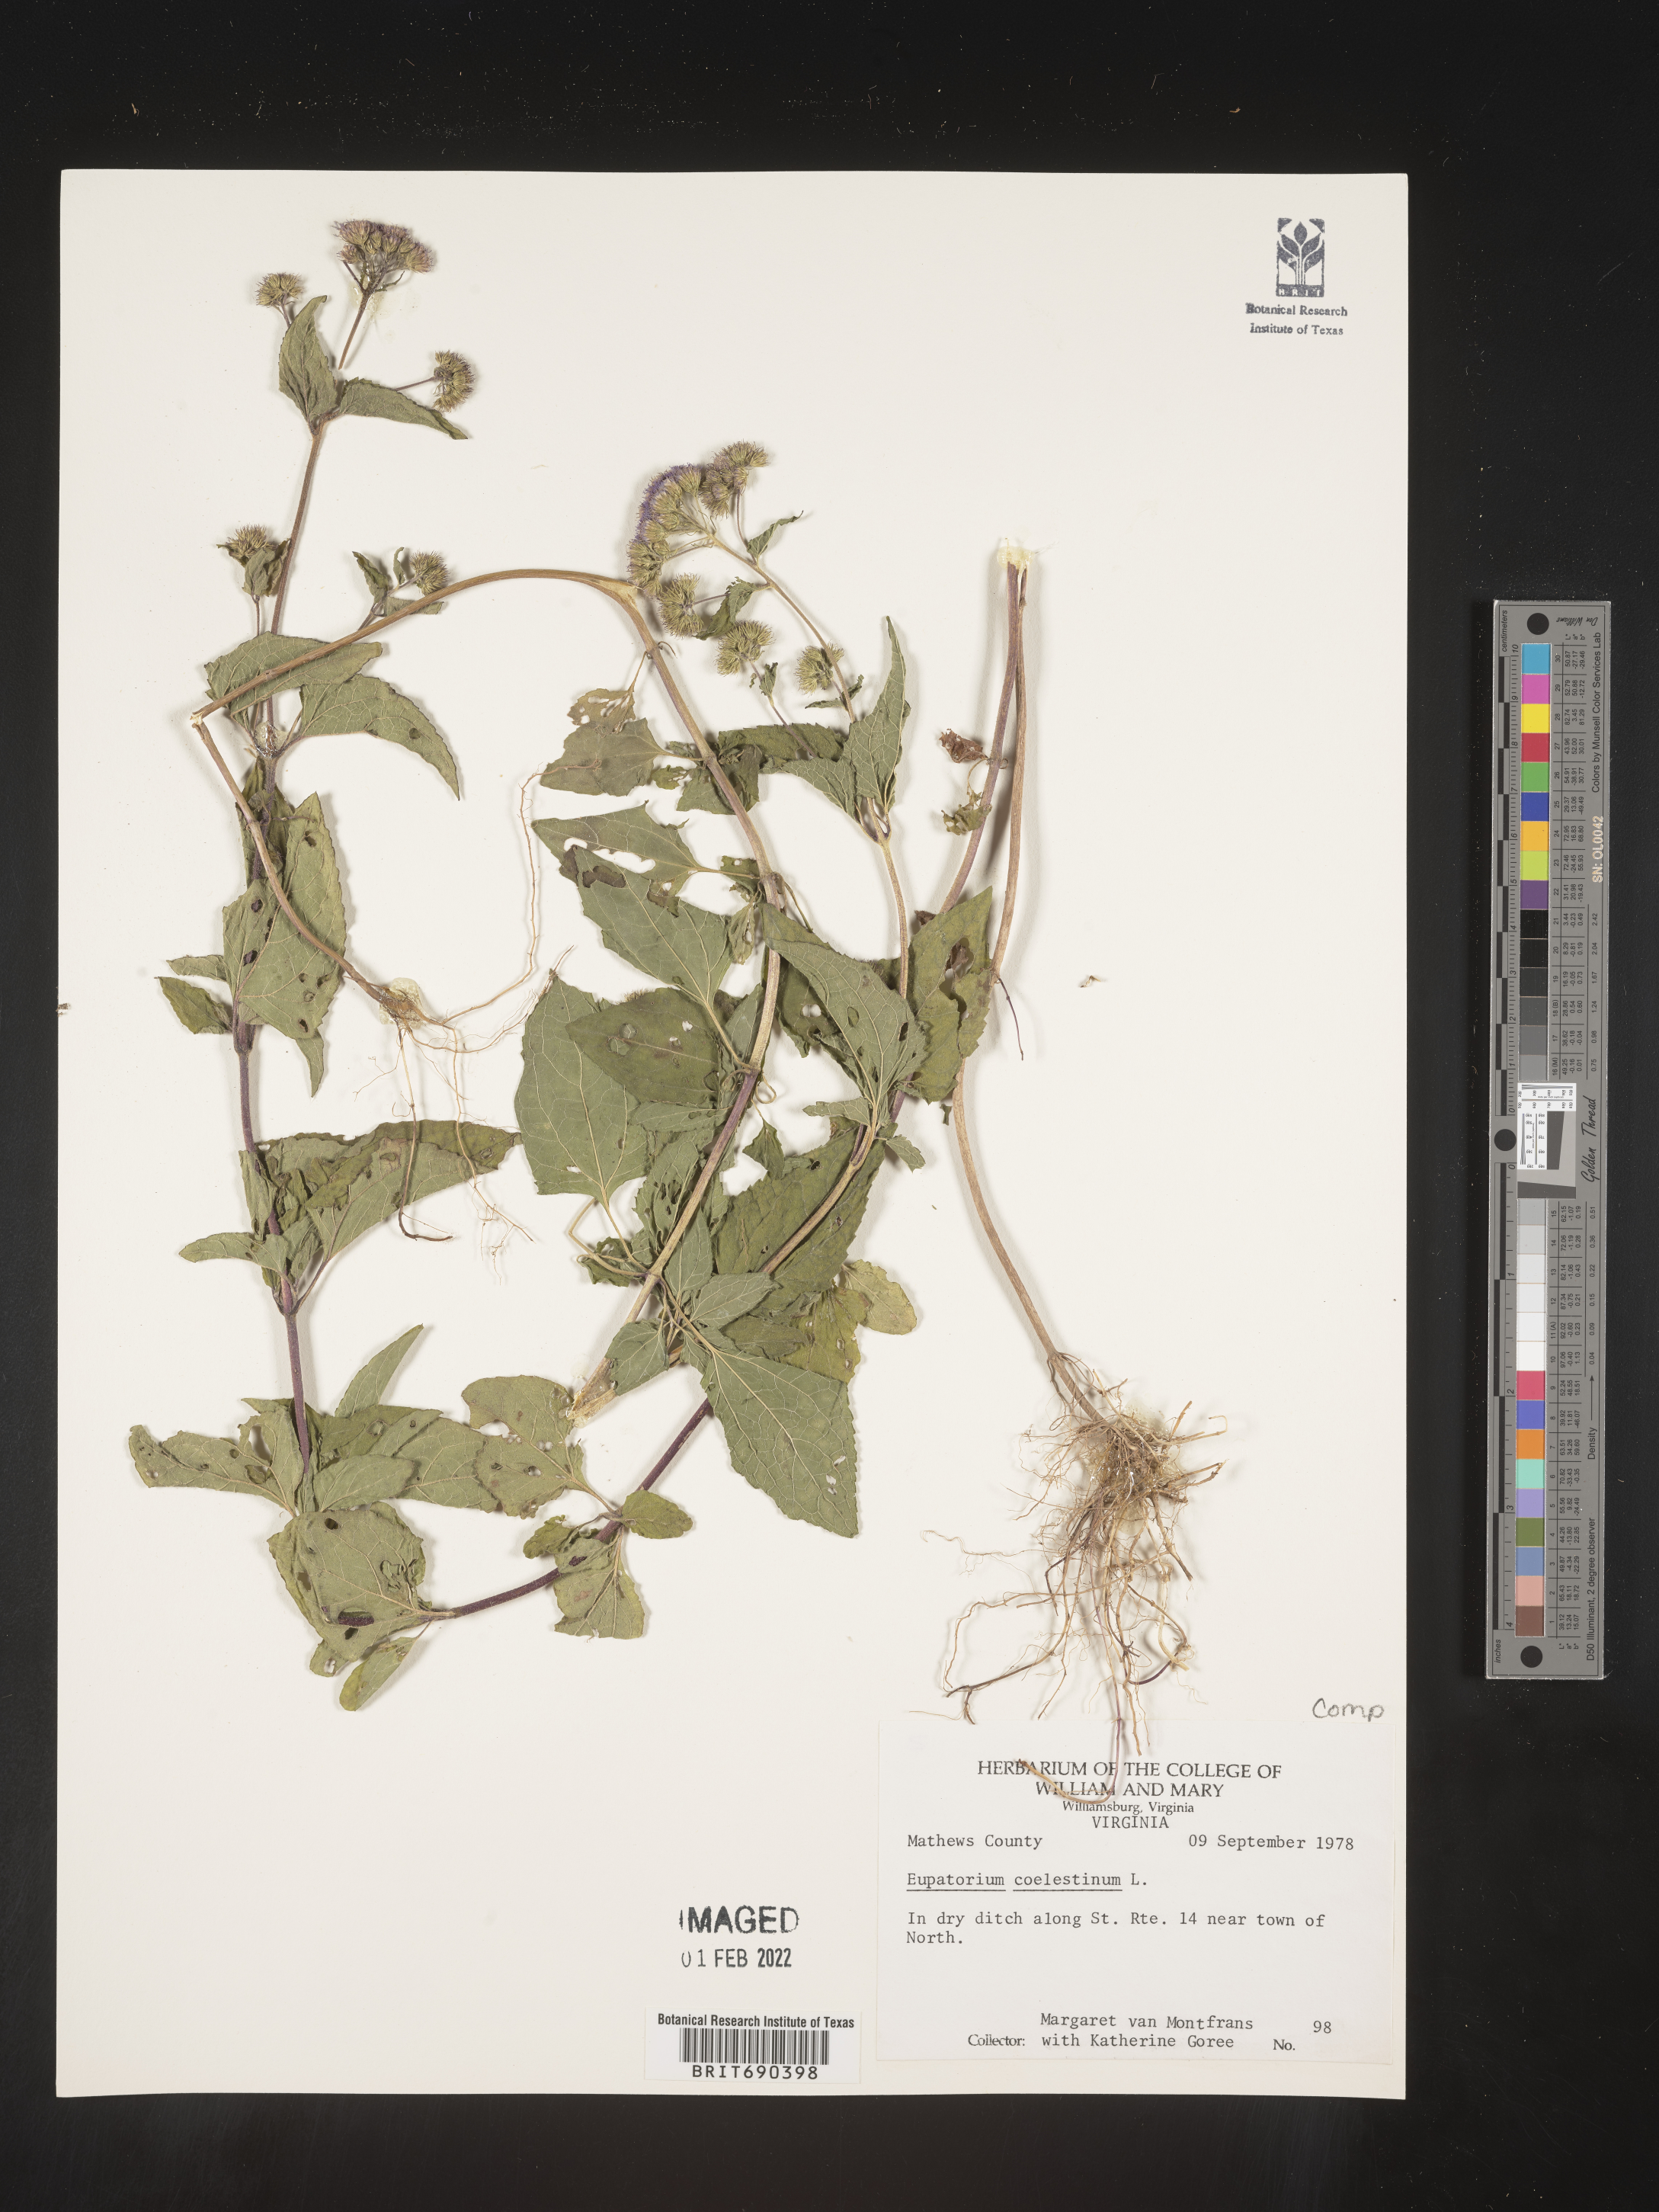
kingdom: Plantae
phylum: Tracheophyta
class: Magnoliopsida
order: Asterales
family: Asteraceae
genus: Conoclinium
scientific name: Conoclinium coelestinum
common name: Blue mistflower
